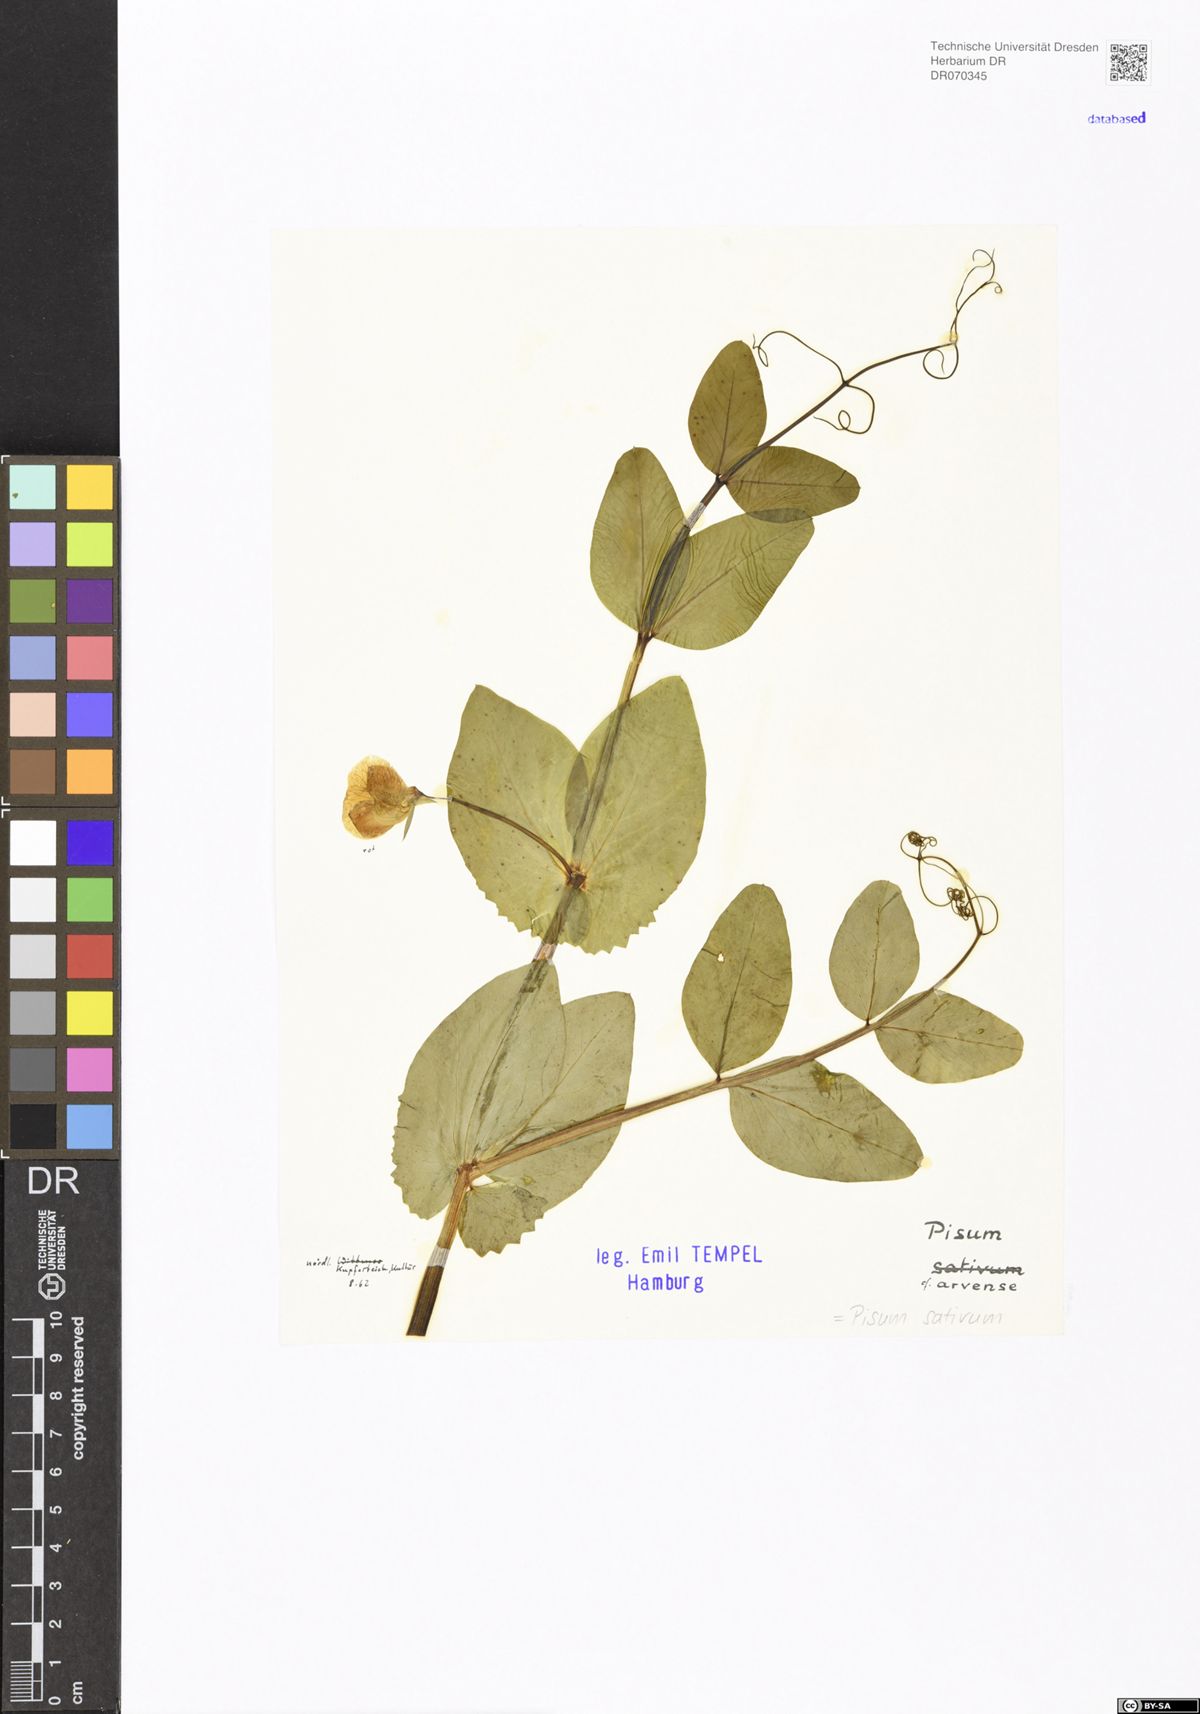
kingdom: Plantae
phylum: Tracheophyta
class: Magnoliopsida
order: Fabales
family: Fabaceae
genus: Lathyrus
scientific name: Lathyrus oleraceus
